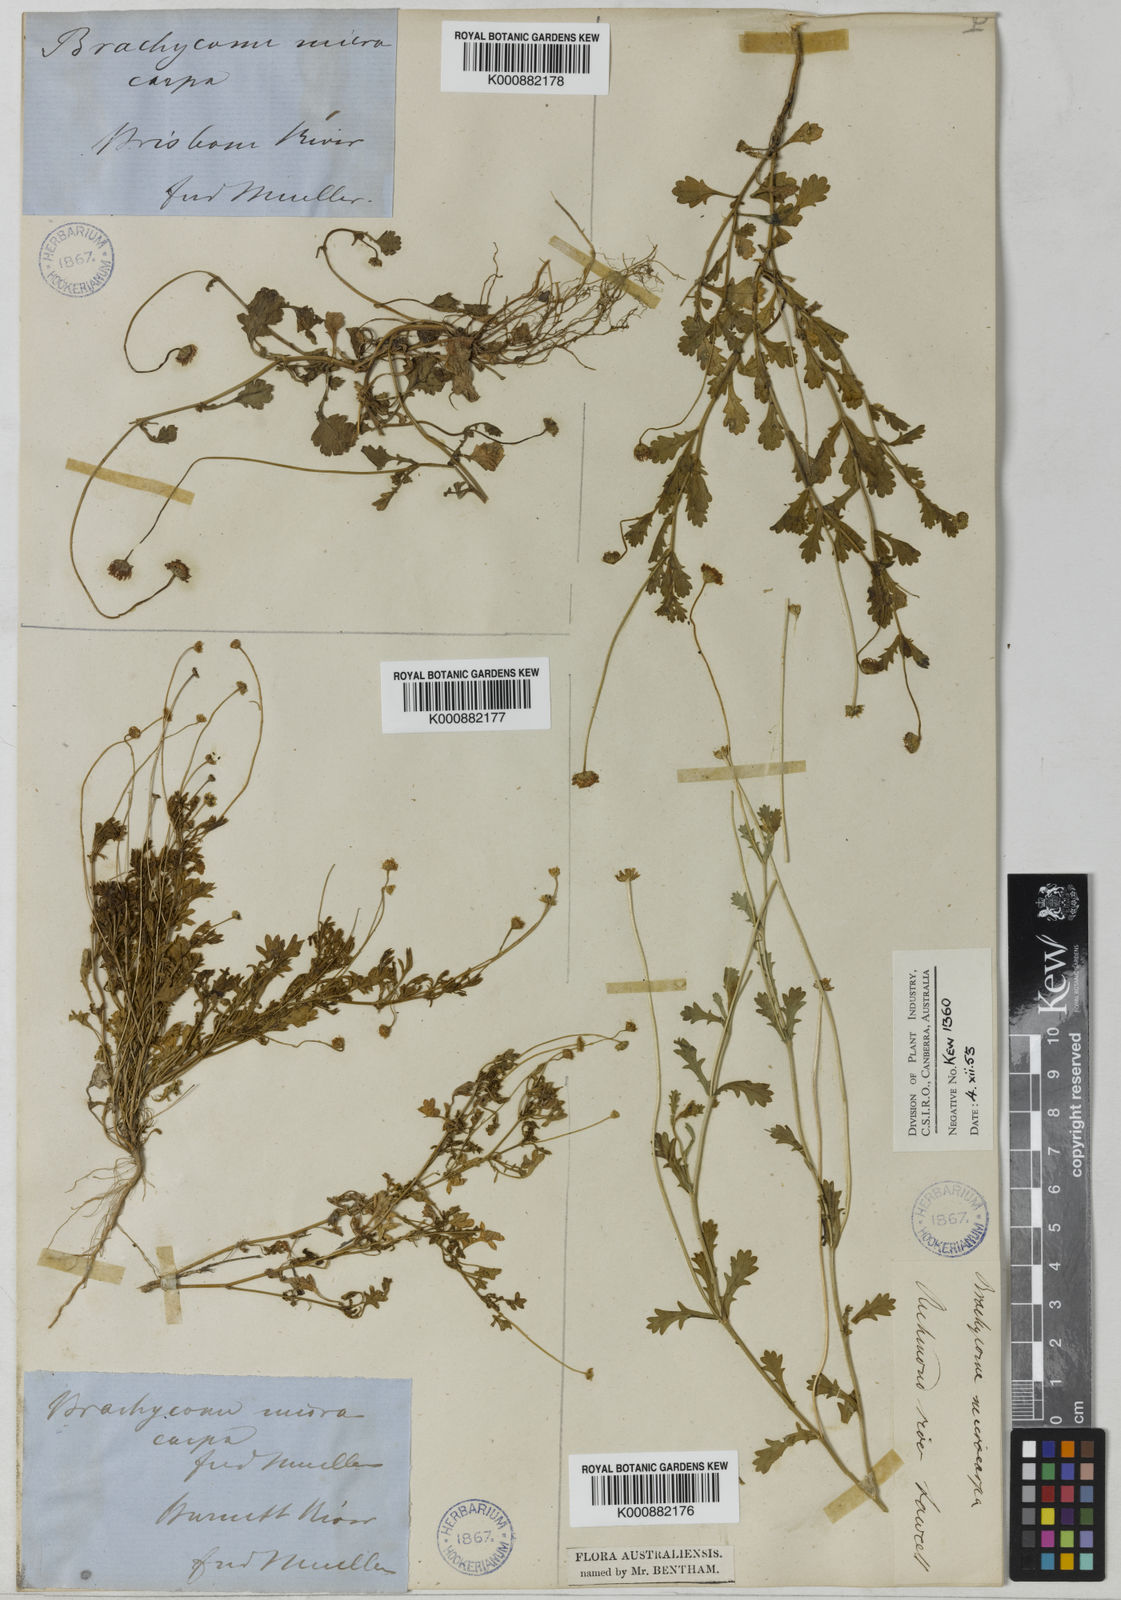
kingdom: Plantae
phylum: Tracheophyta
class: Magnoliopsida
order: Asterales
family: Asteraceae
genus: Brachyscome
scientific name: Brachyscome microcarpa
